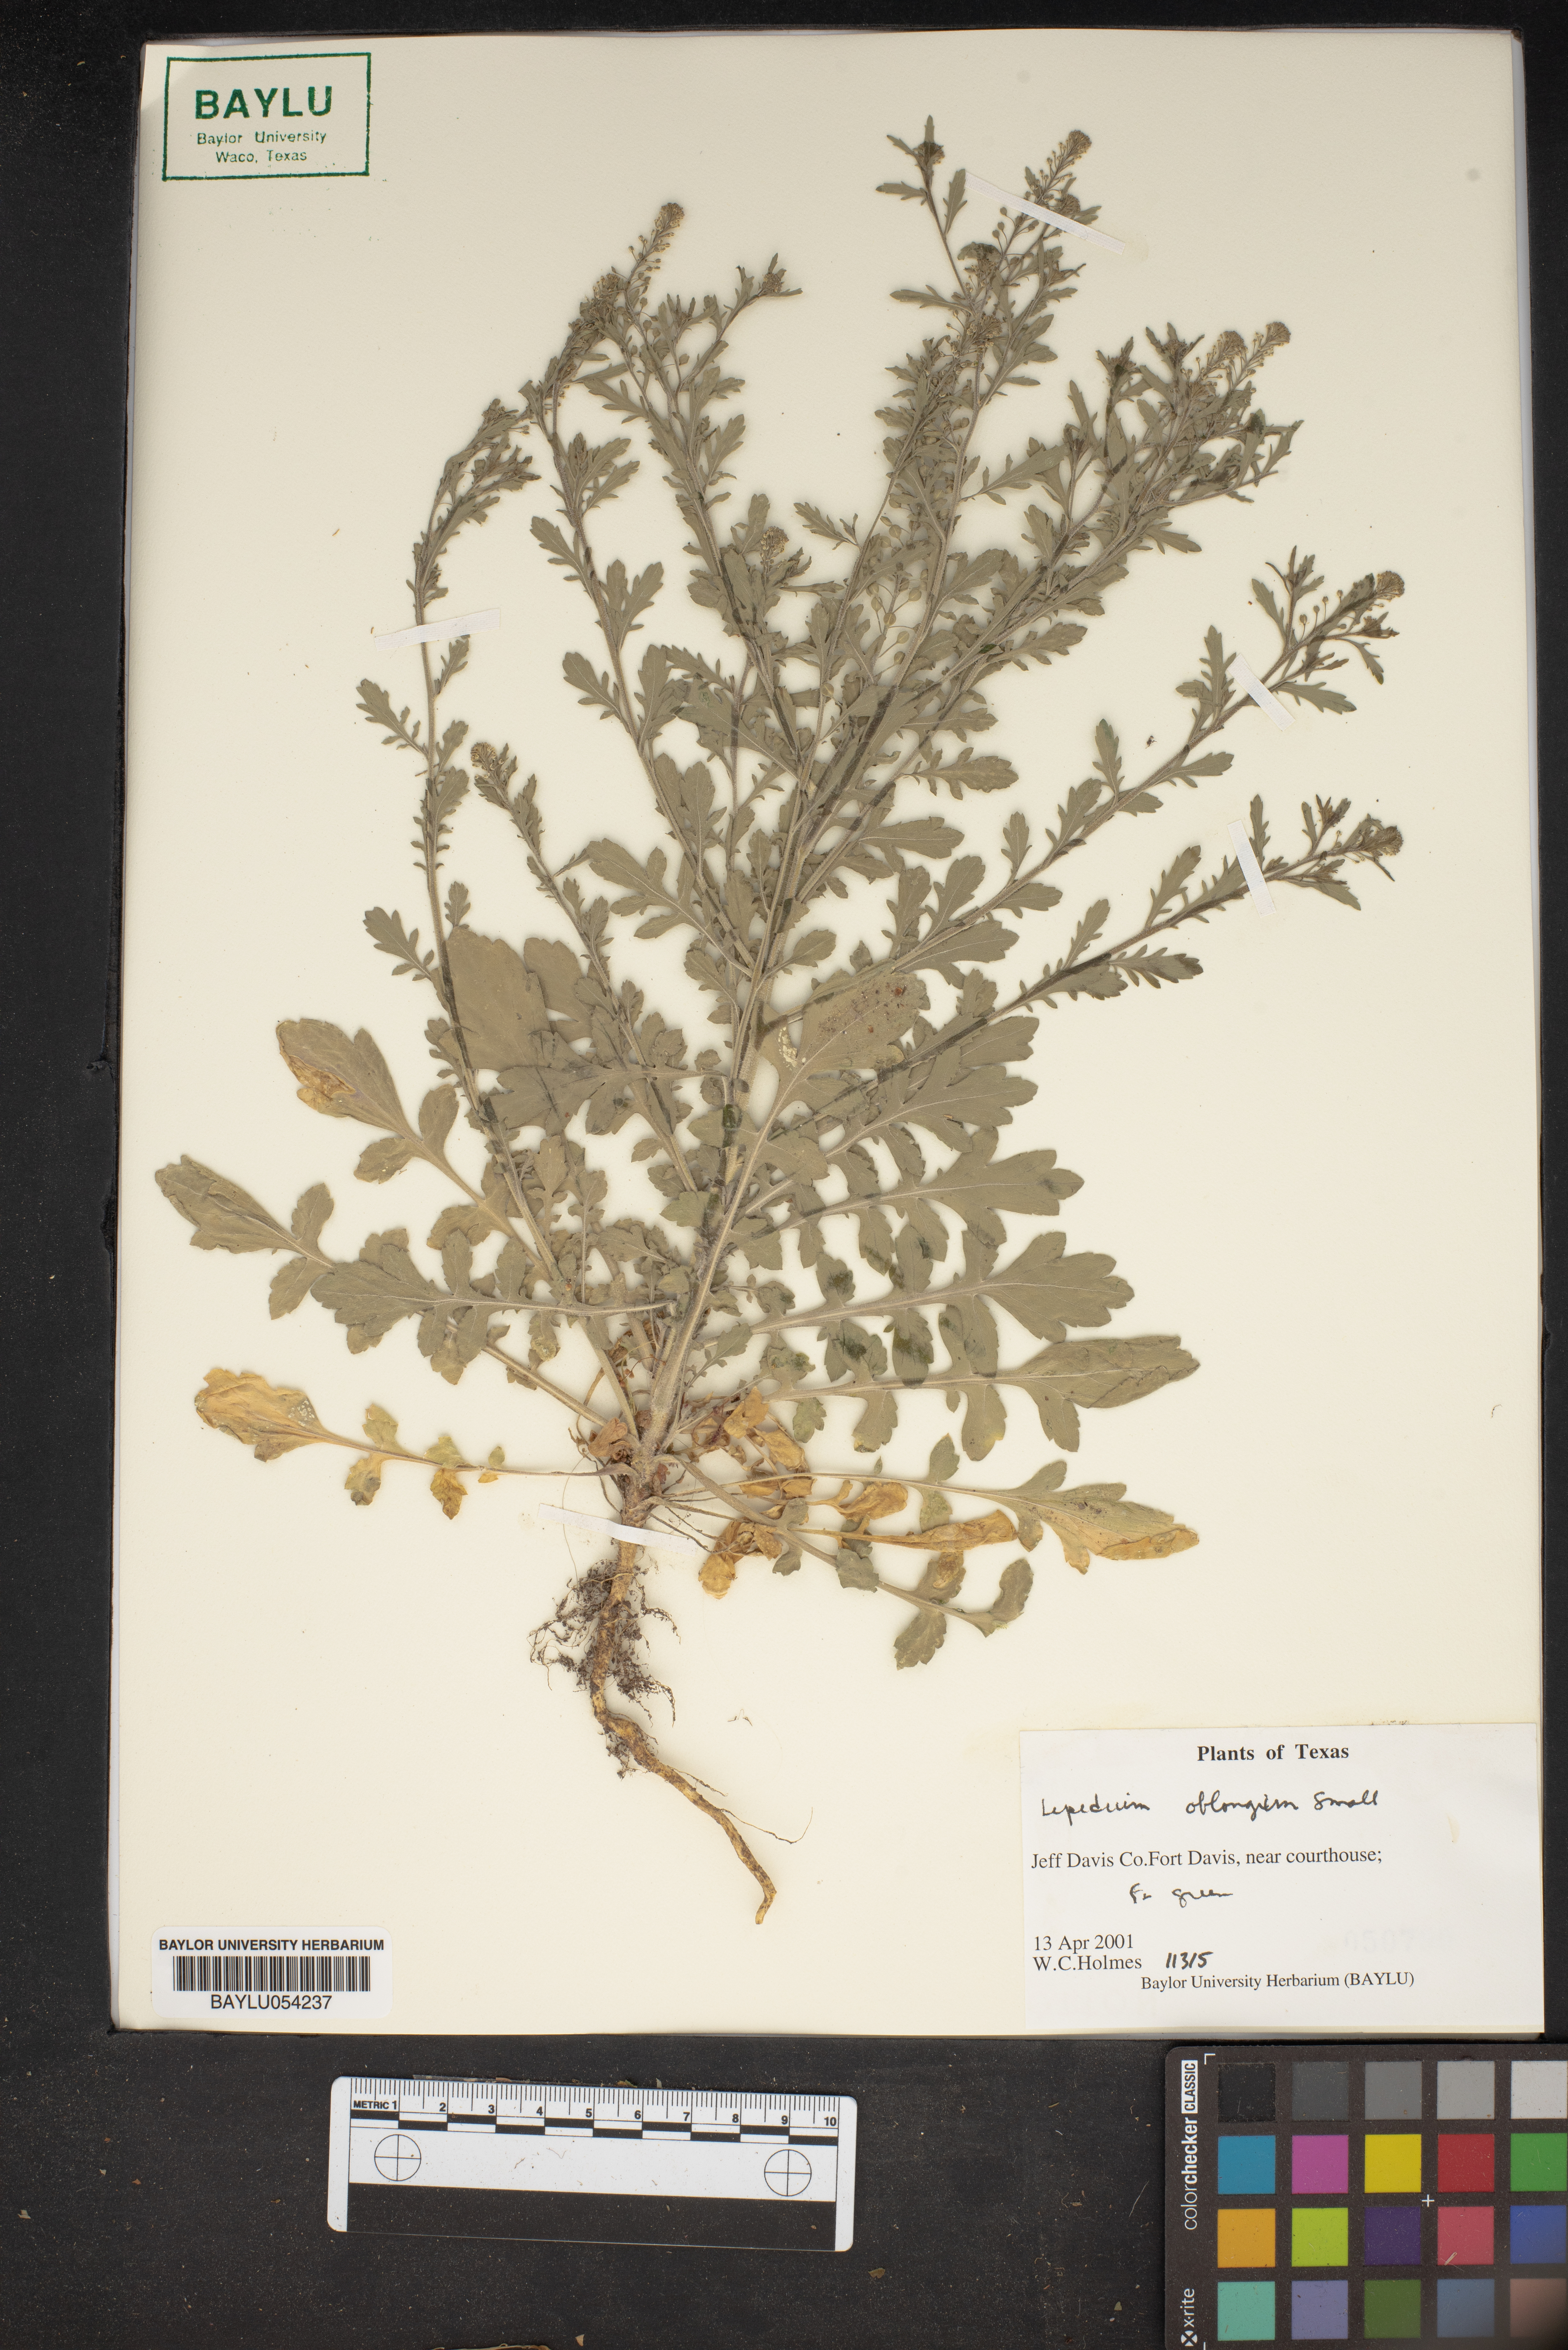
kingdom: Plantae
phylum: Tracheophyta
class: Magnoliopsida
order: Brassicales
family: Brassicaceae
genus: Lepidium
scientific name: Lepidium oblongum
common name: Veiny pepperweed
